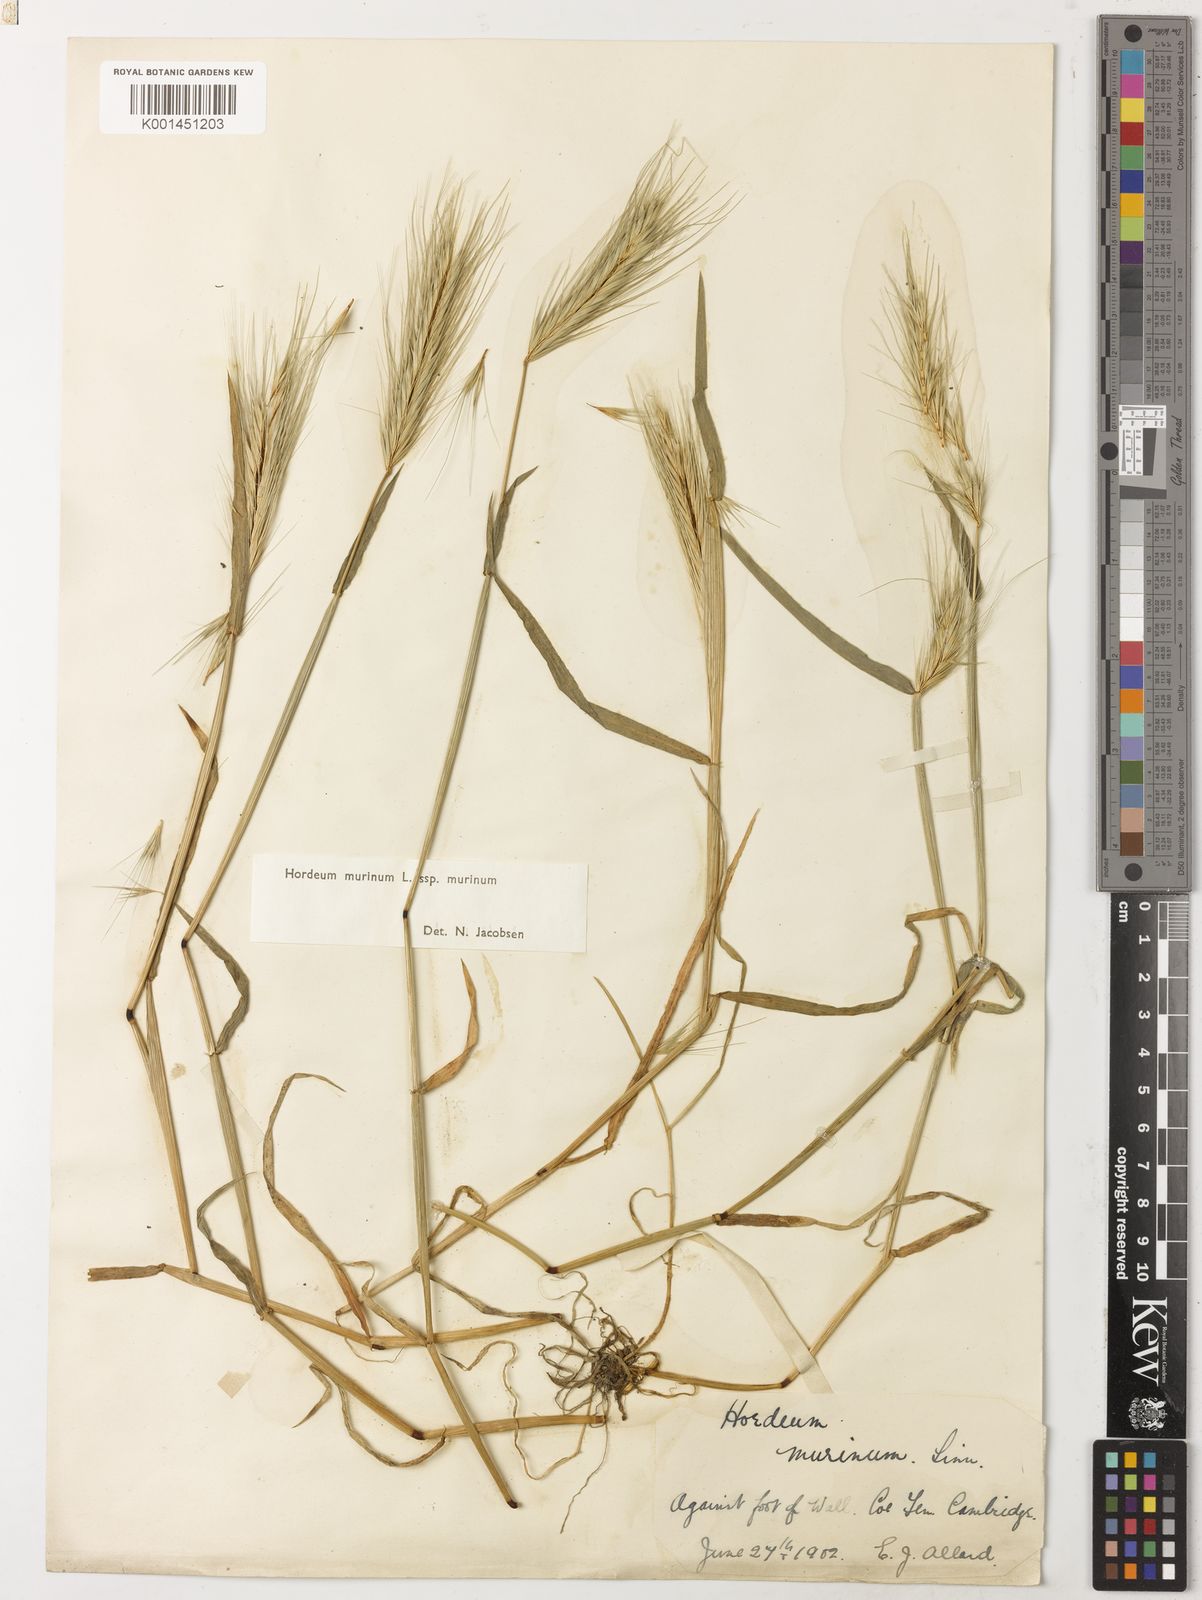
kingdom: Plantae
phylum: Tracheophyta
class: Liliopsida
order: Poales
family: Poaceae
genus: Hordeum
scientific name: Hordeum murinum
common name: Wall barley
